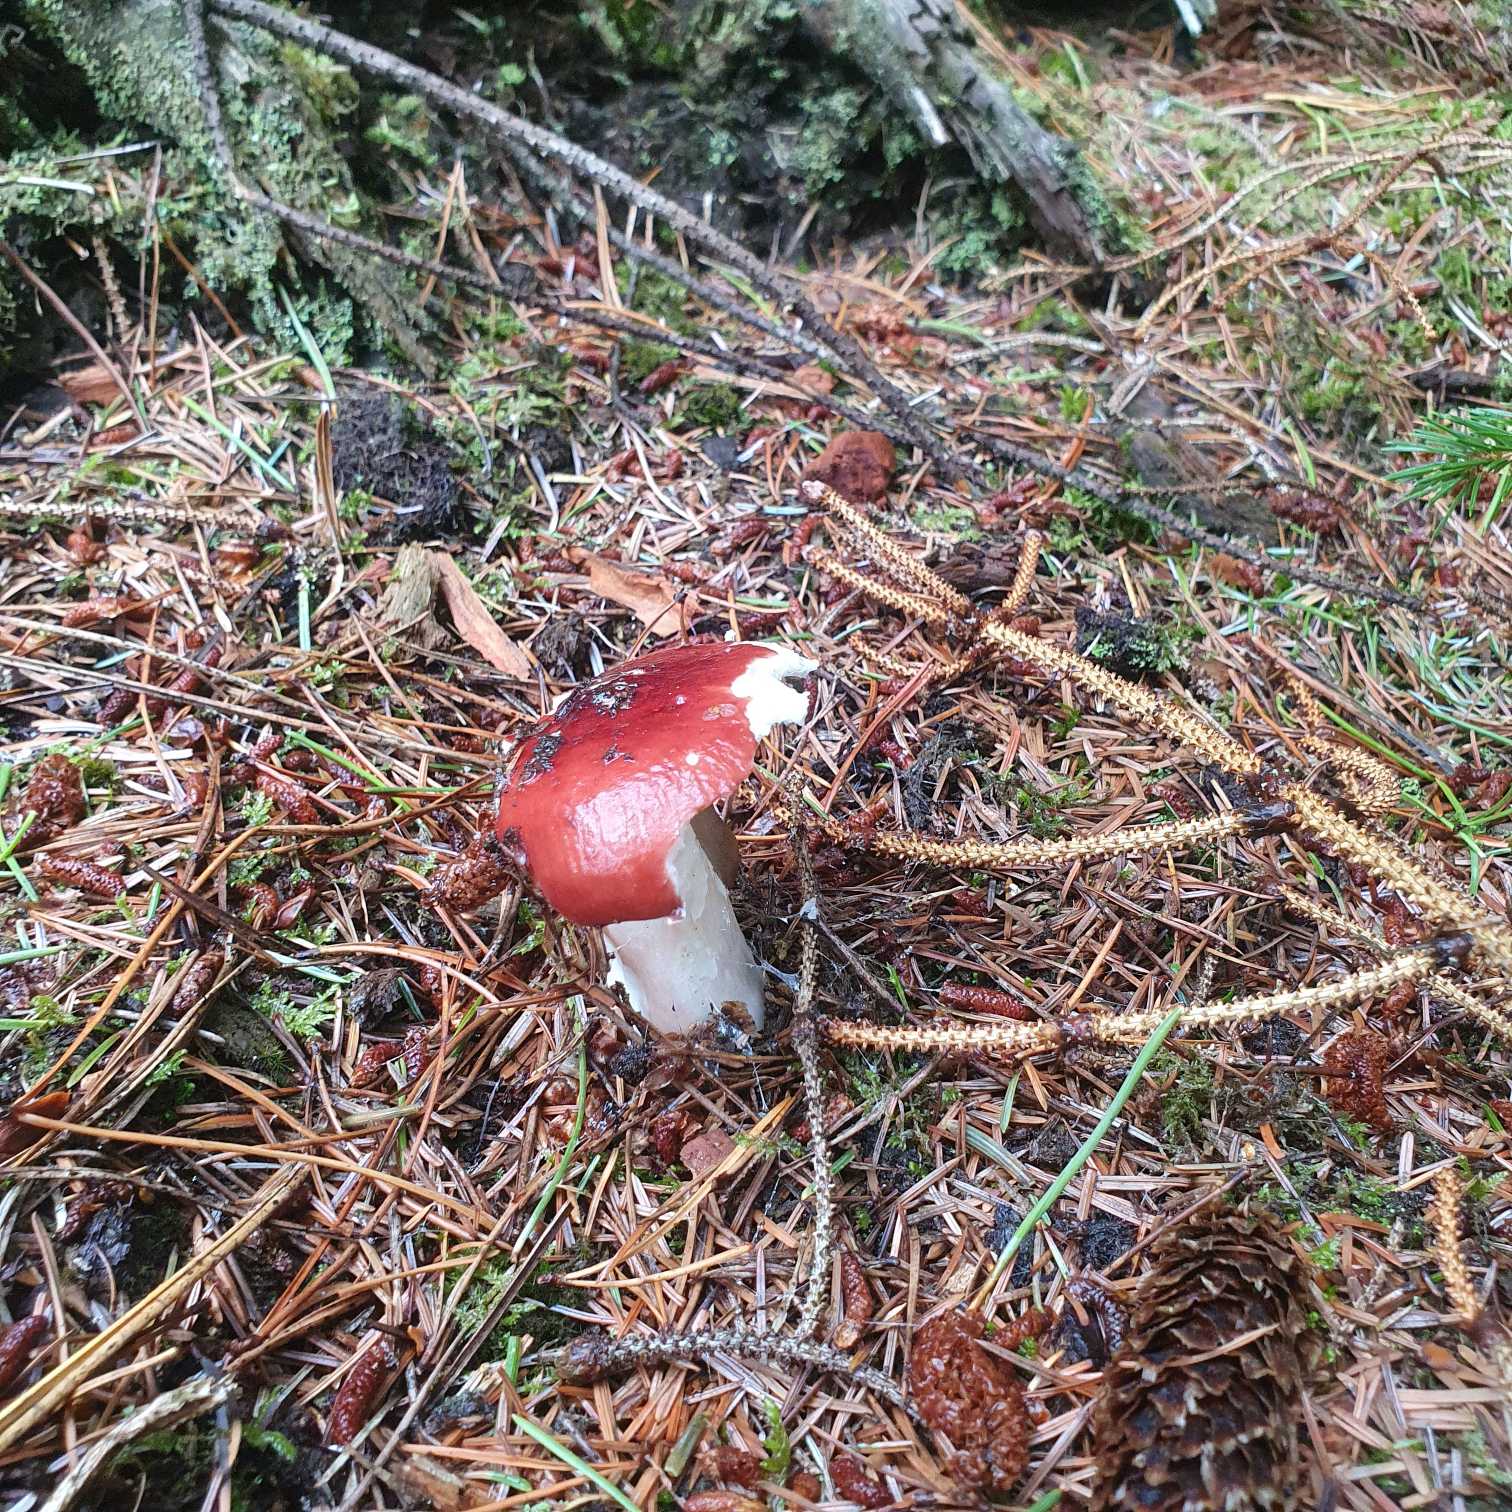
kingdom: Fungi
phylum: Basidiomycota
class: Agaricomycetes
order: Agaricales
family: Amanitaceae
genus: Amanita
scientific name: Amanita muscaria
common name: Rød fluesvamp
